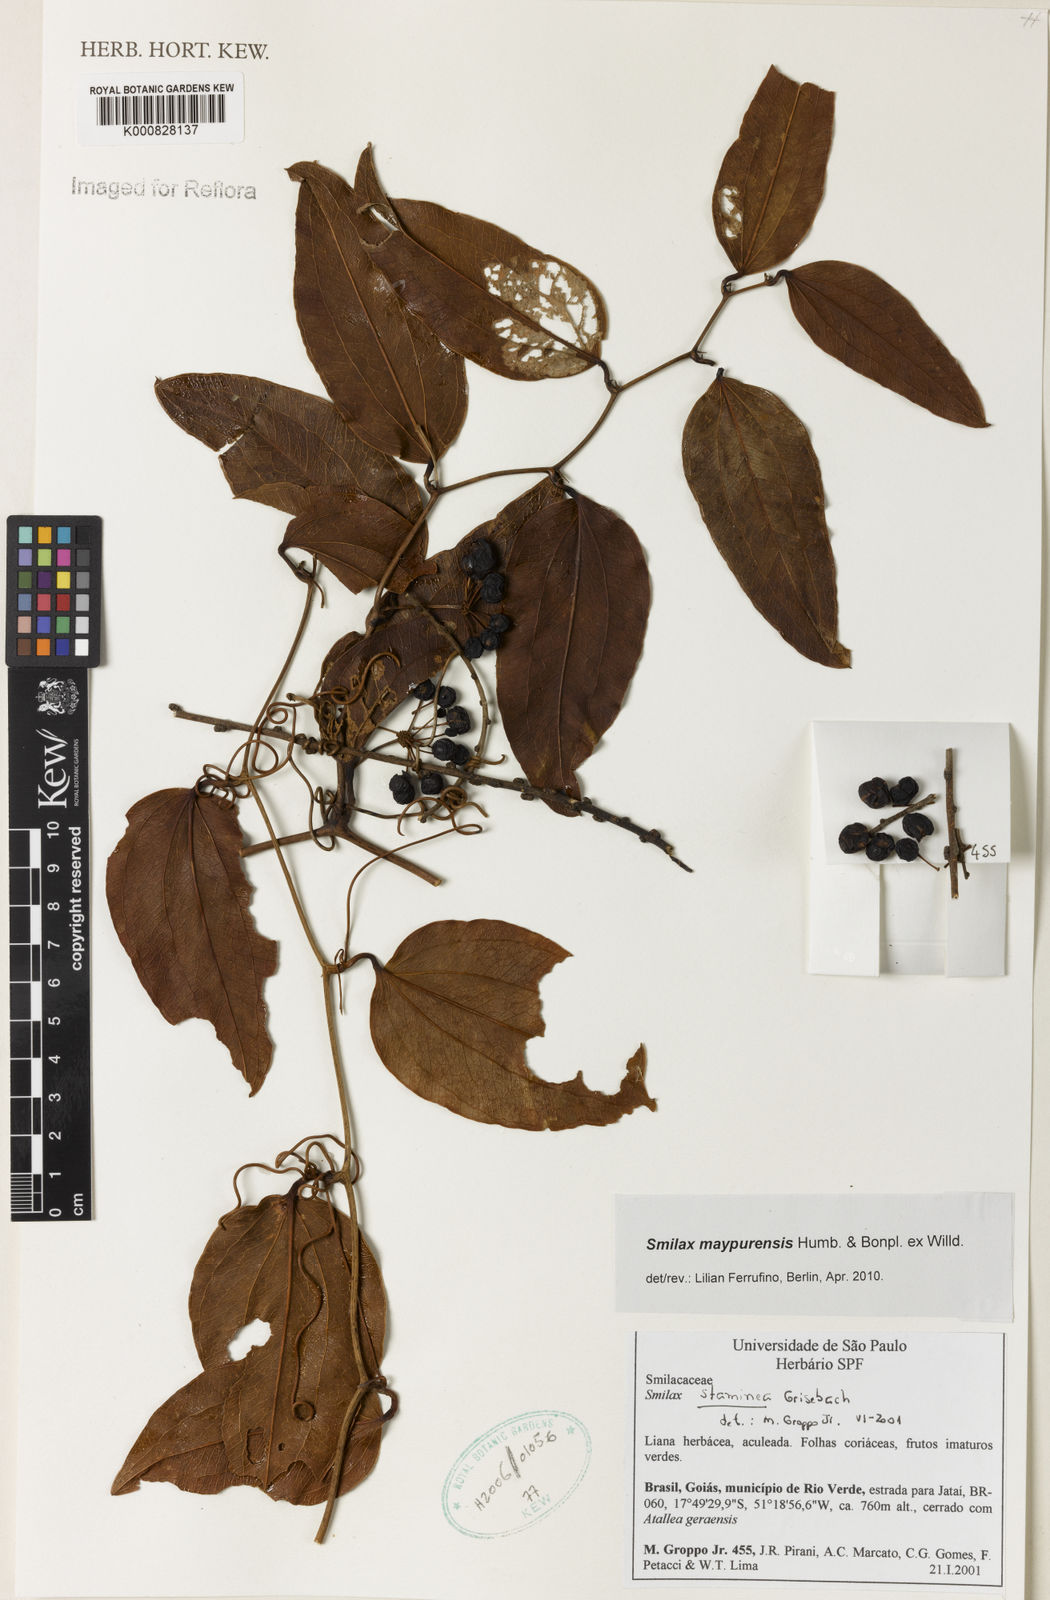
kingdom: Plantae
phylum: Tracheophyta
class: Liliopsida
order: Liliales
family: Smilacaceae
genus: Smilax
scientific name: Smilax maypurensis
